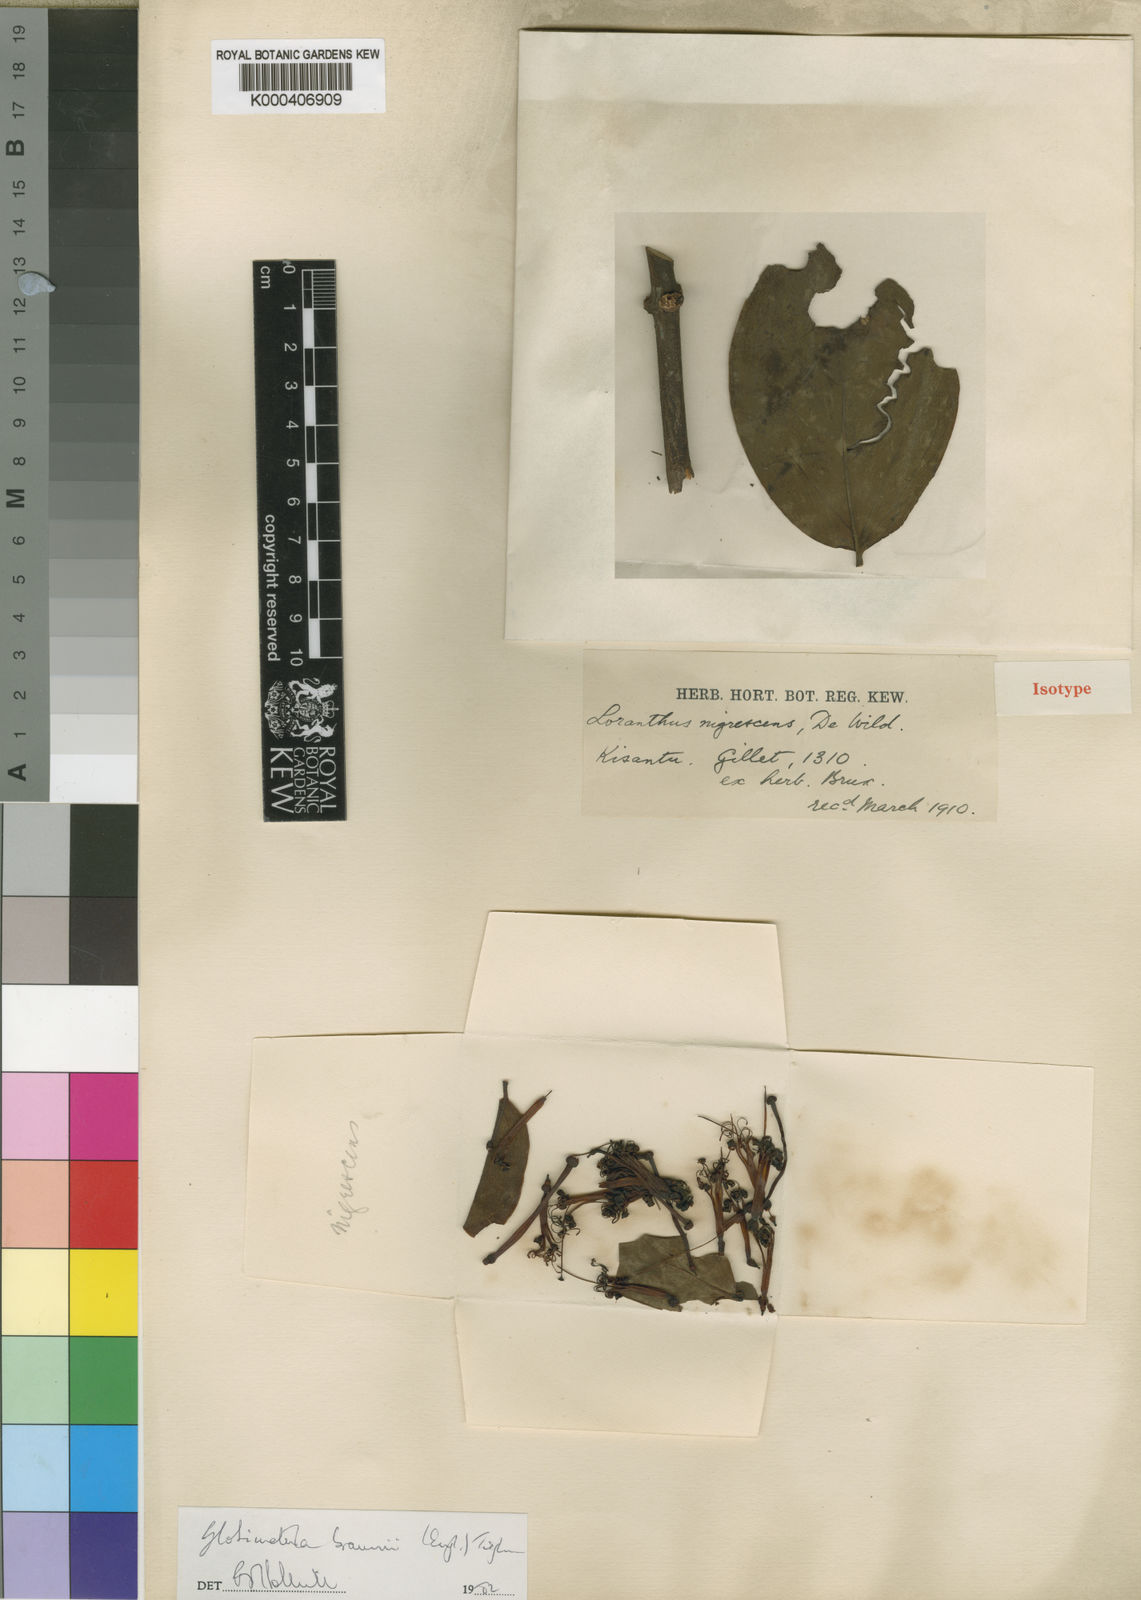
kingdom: Plantae
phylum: Tracheophyta
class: Magnoliopsida
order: Santalales
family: Loranthaceae
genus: Globimetula
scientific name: Globimetula braunii
